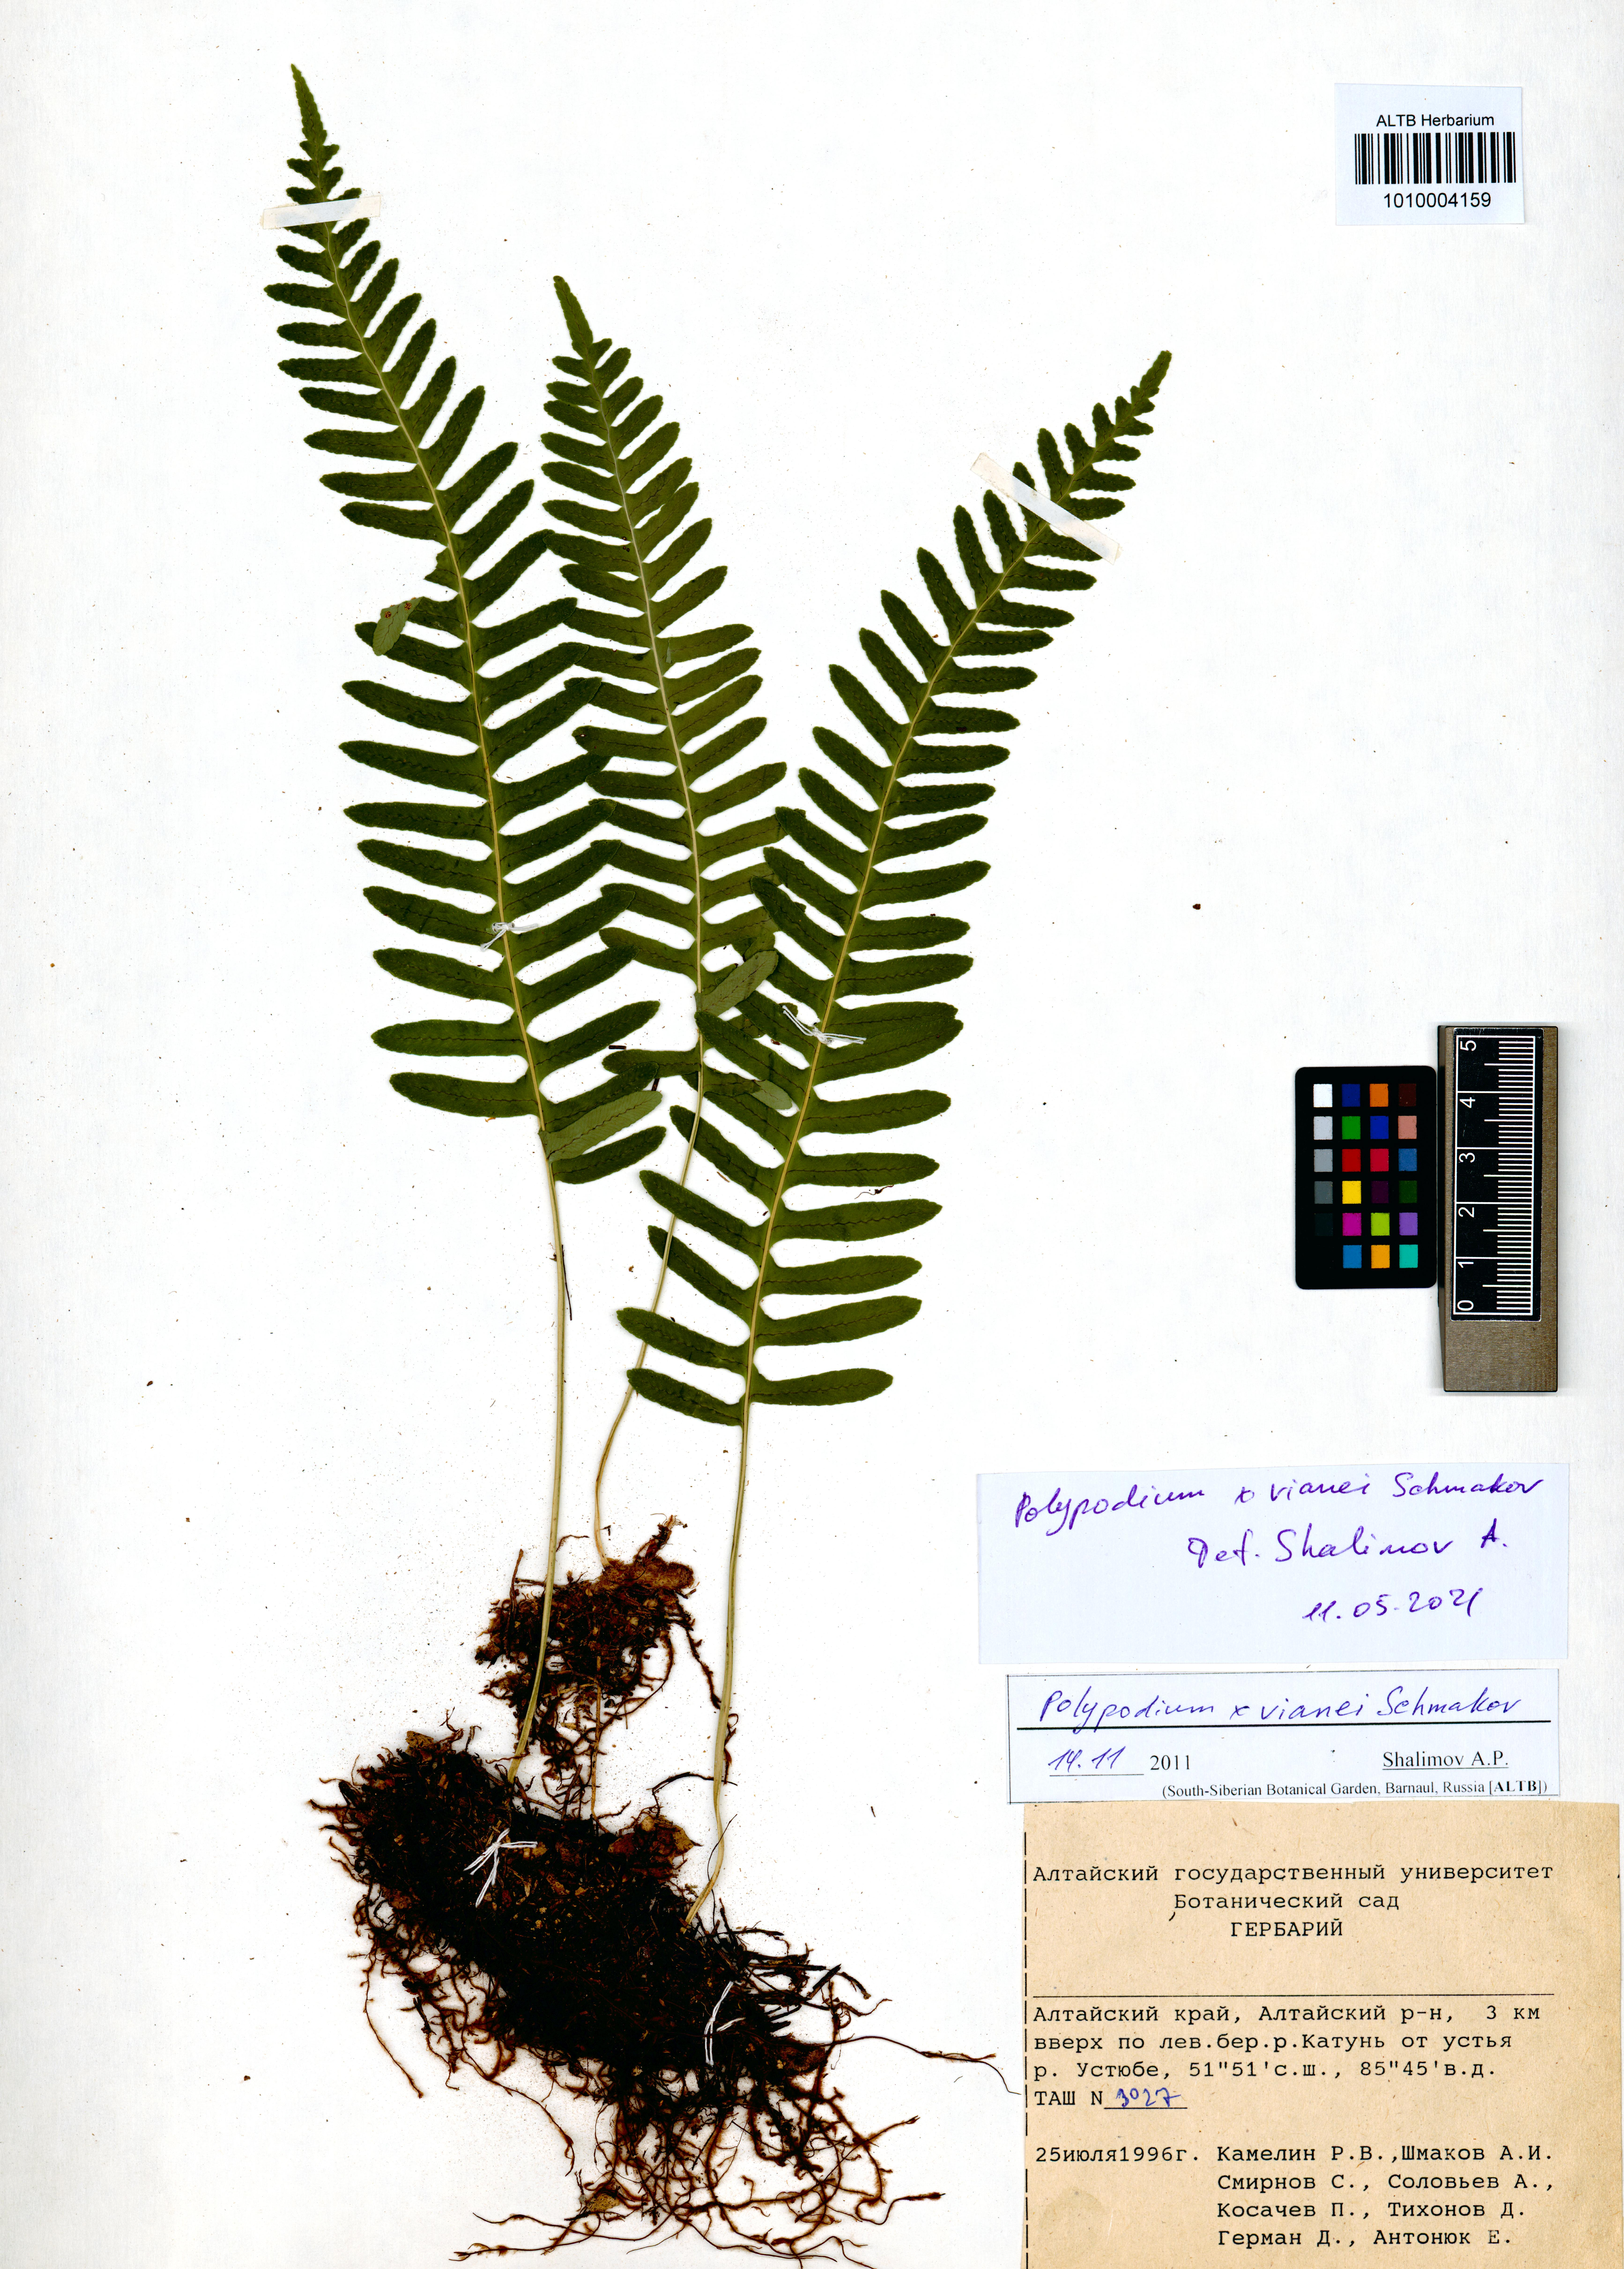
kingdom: Plantae
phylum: Tracheophyta
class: Polypodiopsida
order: Polypodiales
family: Polypodiaceae
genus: Polypodium
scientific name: Polypodium vianei
